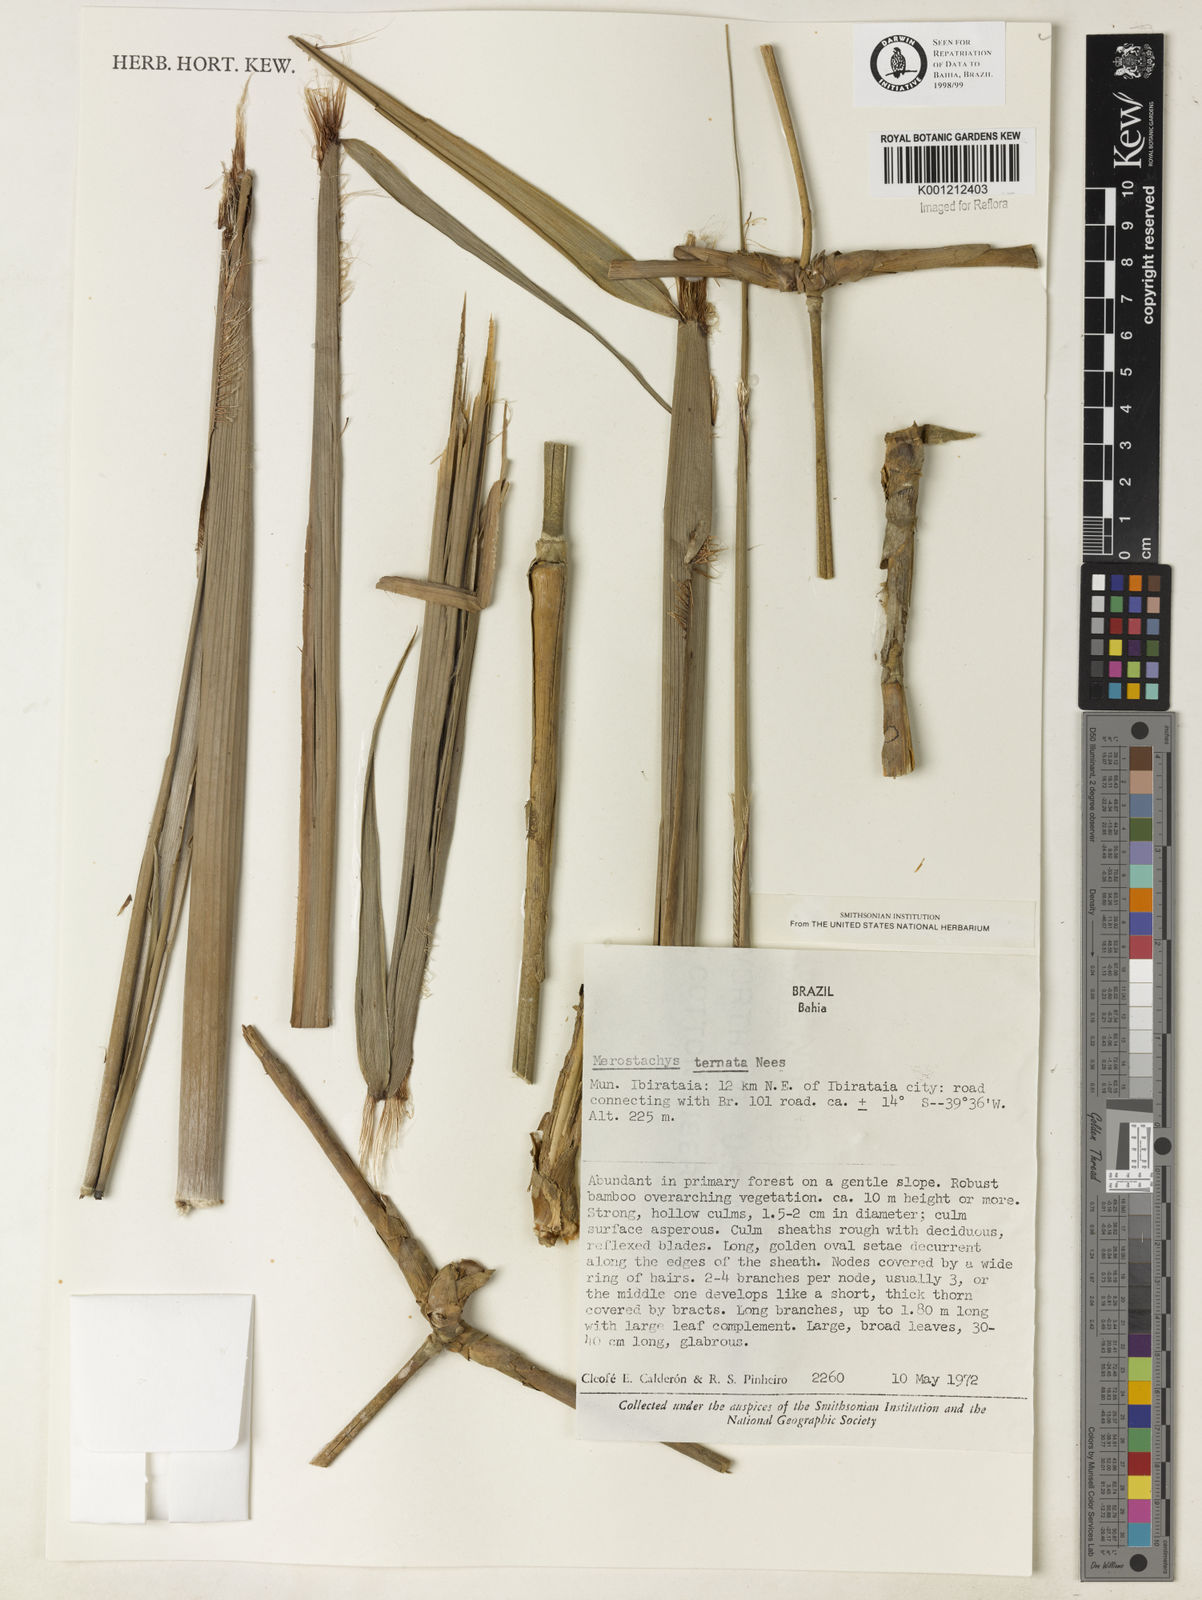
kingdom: Plantae
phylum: Tracheophyta
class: Liliopsida
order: Poales
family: Poaceae
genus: Merostachys
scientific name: Merostachys ternata
